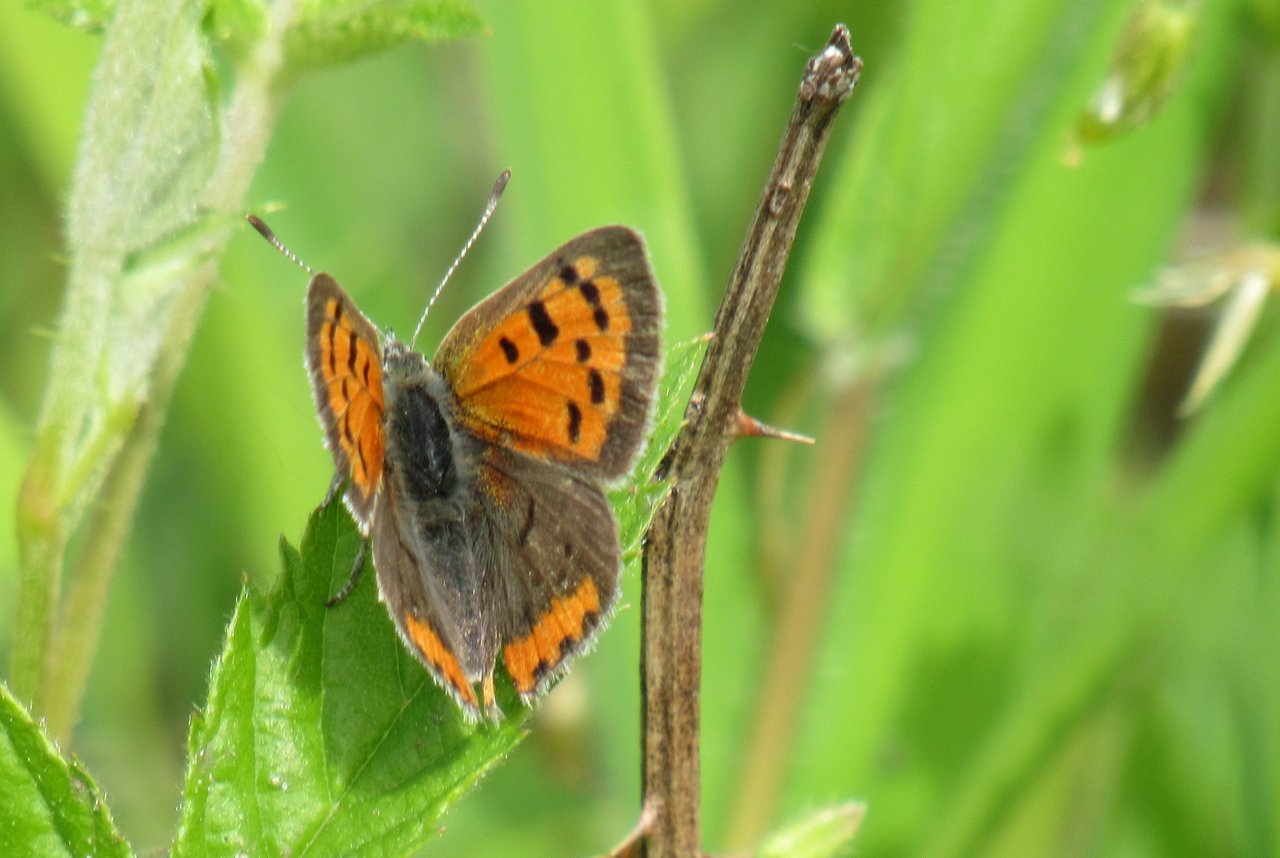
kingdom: Animalia
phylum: Arthropoda
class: Insecta
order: Lepidoptera
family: Lycaenidae
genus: Lycaena
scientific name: Lycaena phlaeas
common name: American Copper
